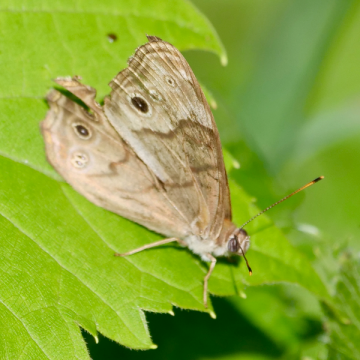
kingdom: Animalia
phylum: Arthropoda
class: Insecta
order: Lepidoptera
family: Nymphalidae
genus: Lethe
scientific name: Lethe anthedon
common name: Northern Pearly-Eye
